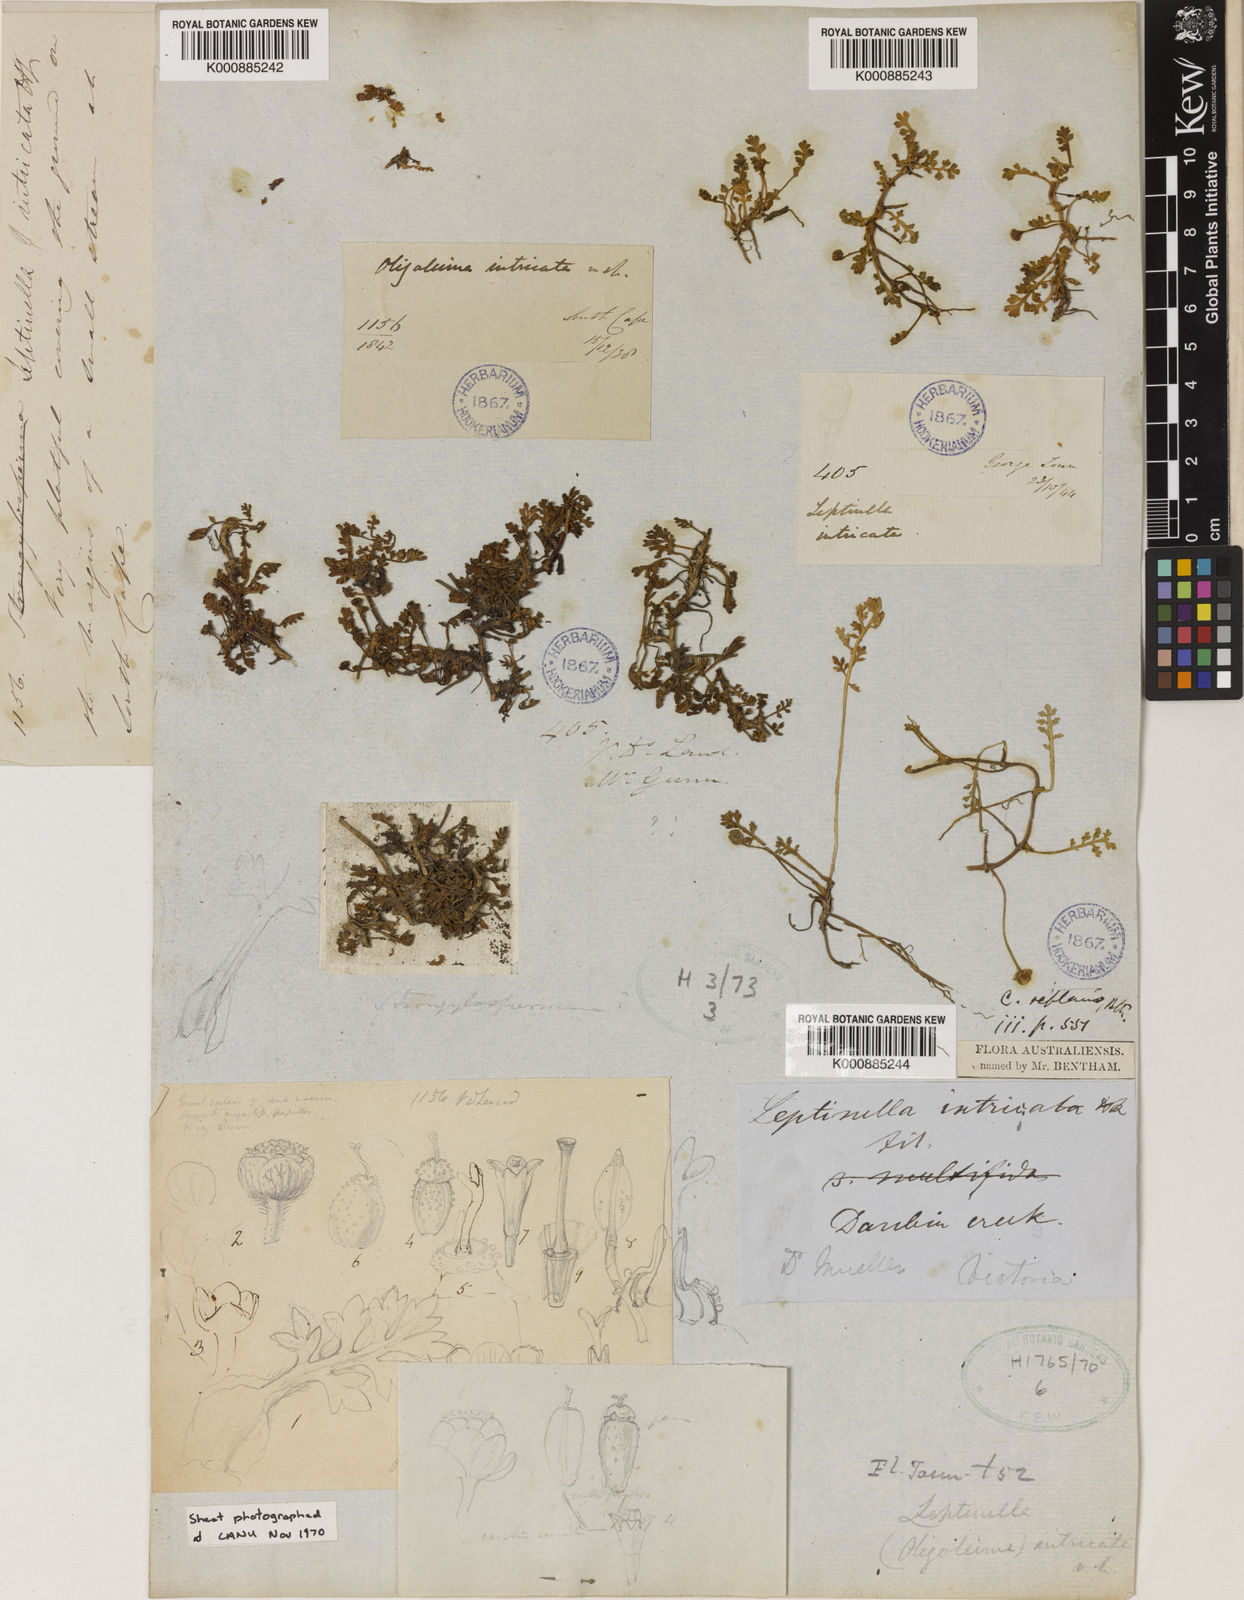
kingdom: Plantae
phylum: Tracheophyta
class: Magnoliopsida
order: Asterales
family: Asteraceae
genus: Leptinella
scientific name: Leptinella reptans
